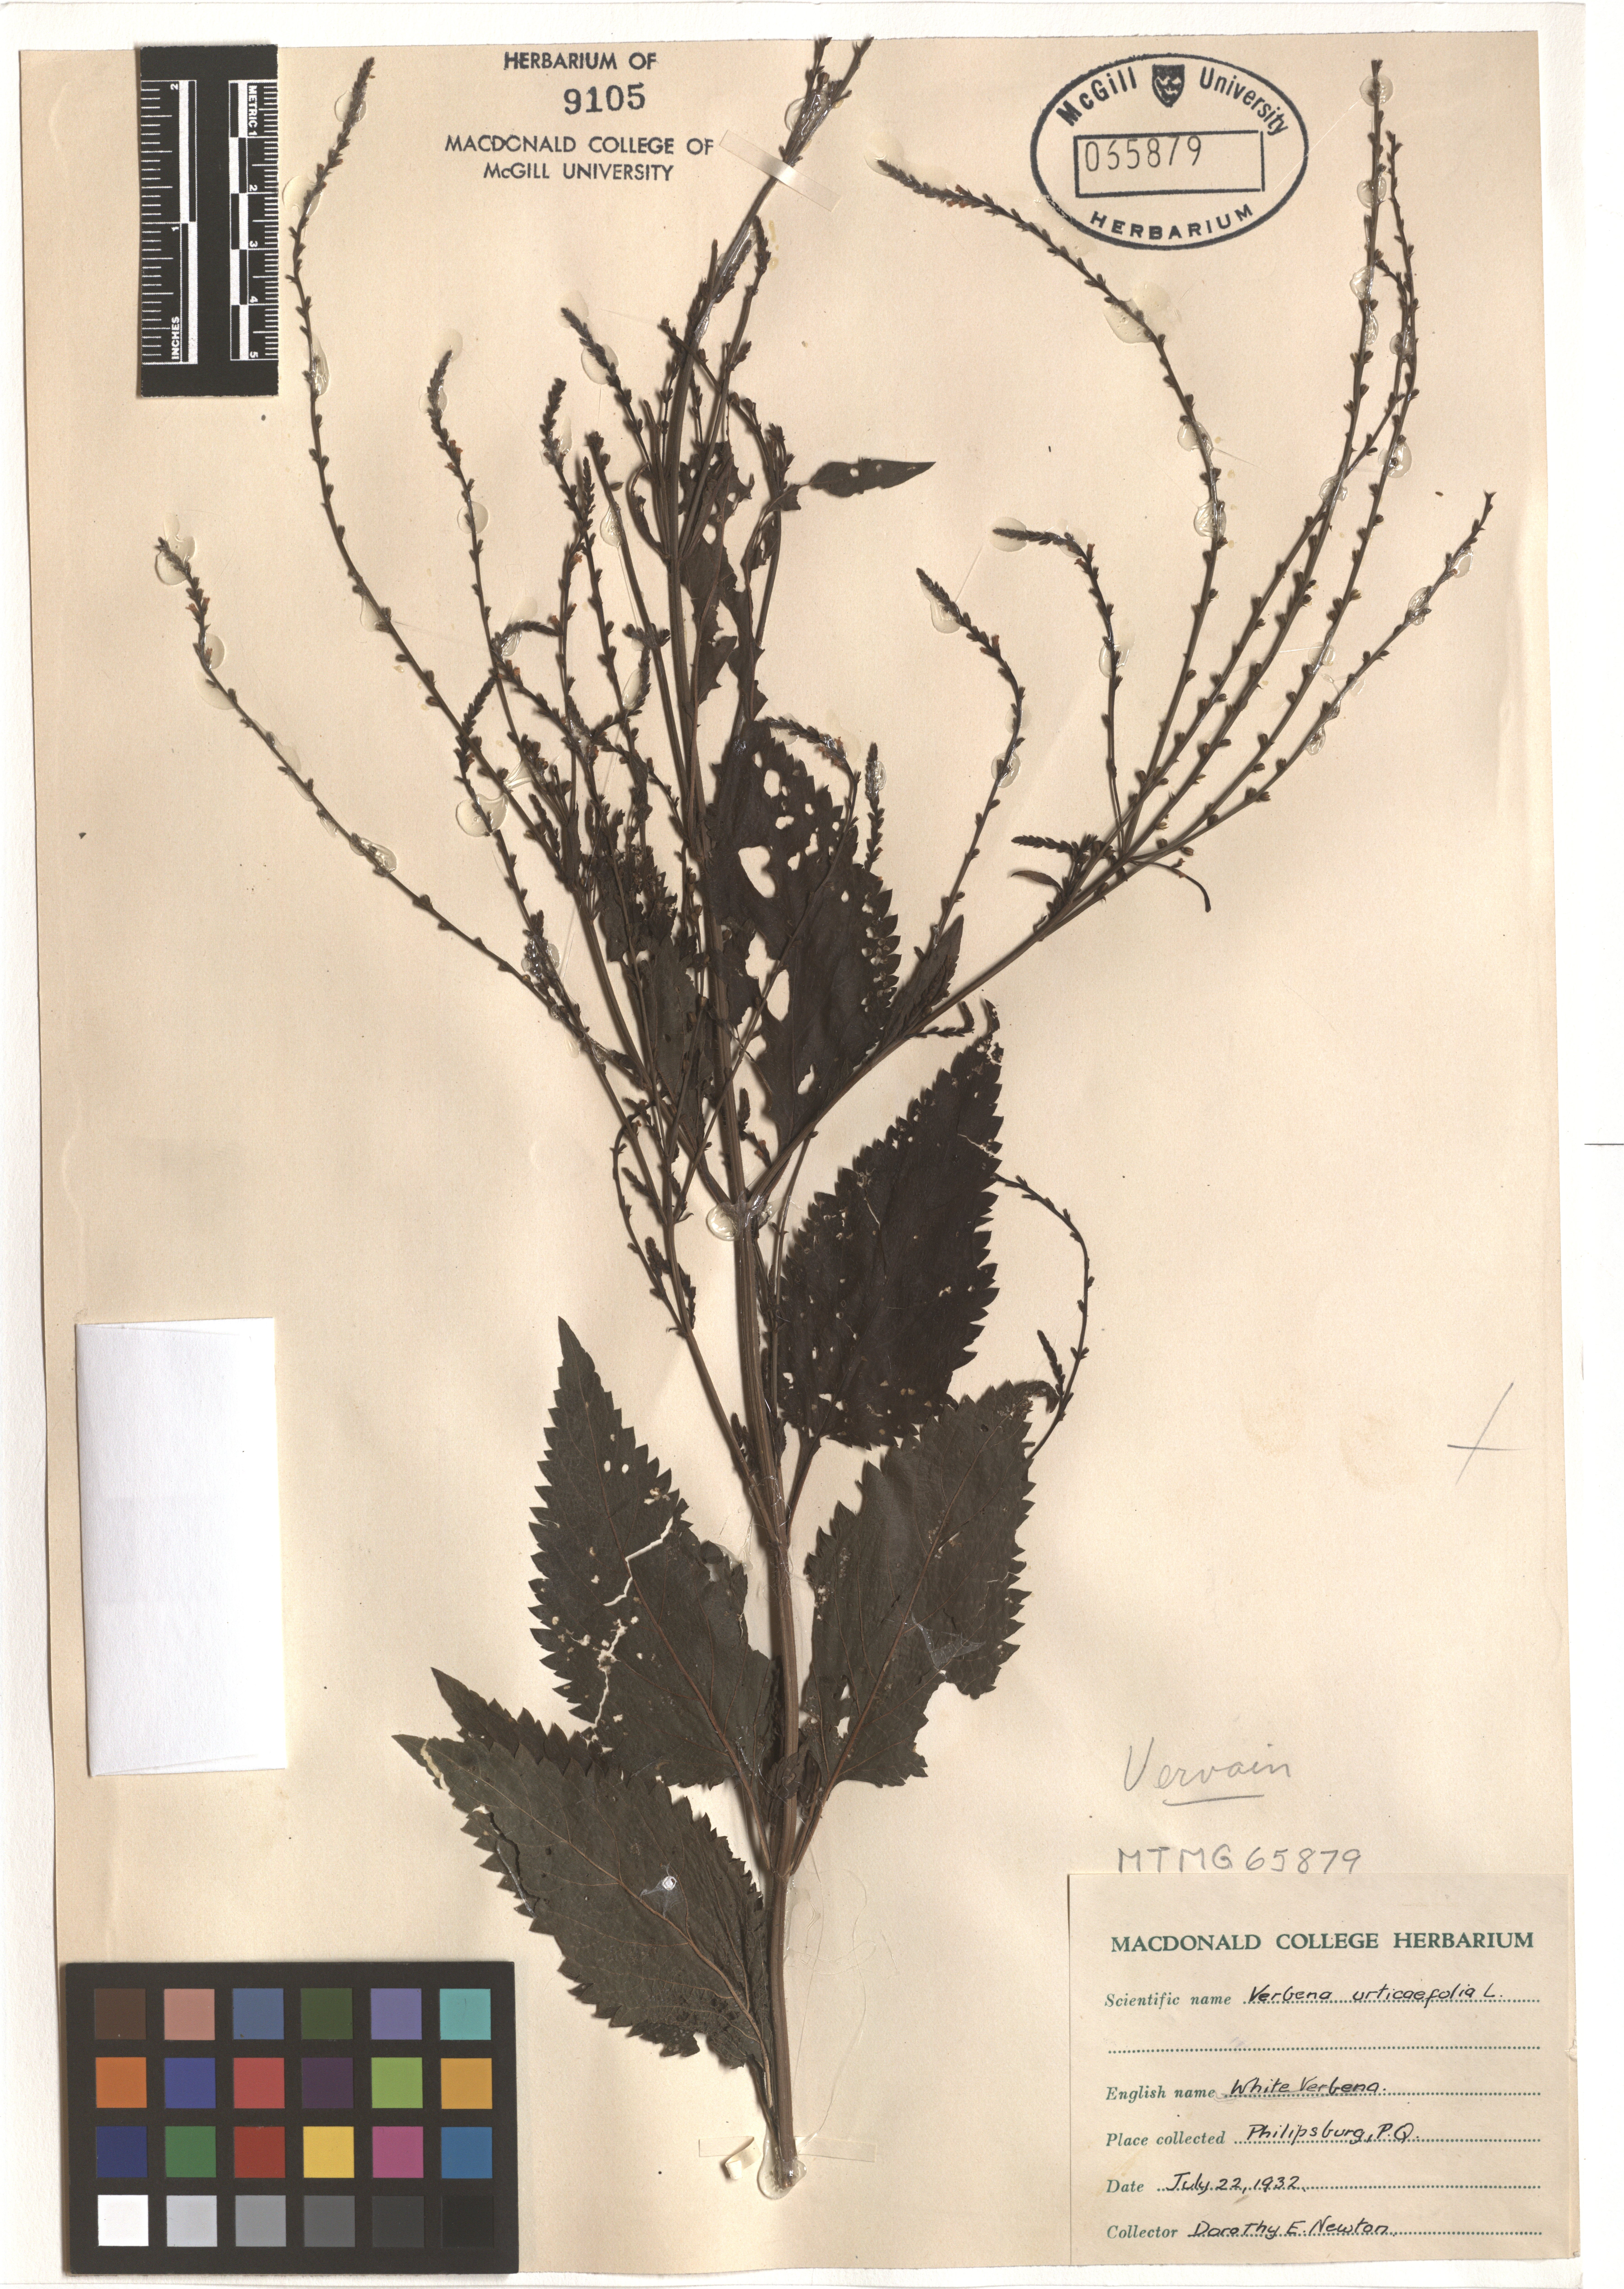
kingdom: Plantae
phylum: Tracheophyta
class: Magnoliopsida
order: Lamiales
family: Verbenaceae
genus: Verbena
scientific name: Verbena urticifolia
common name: Nettle-leaved vervain
